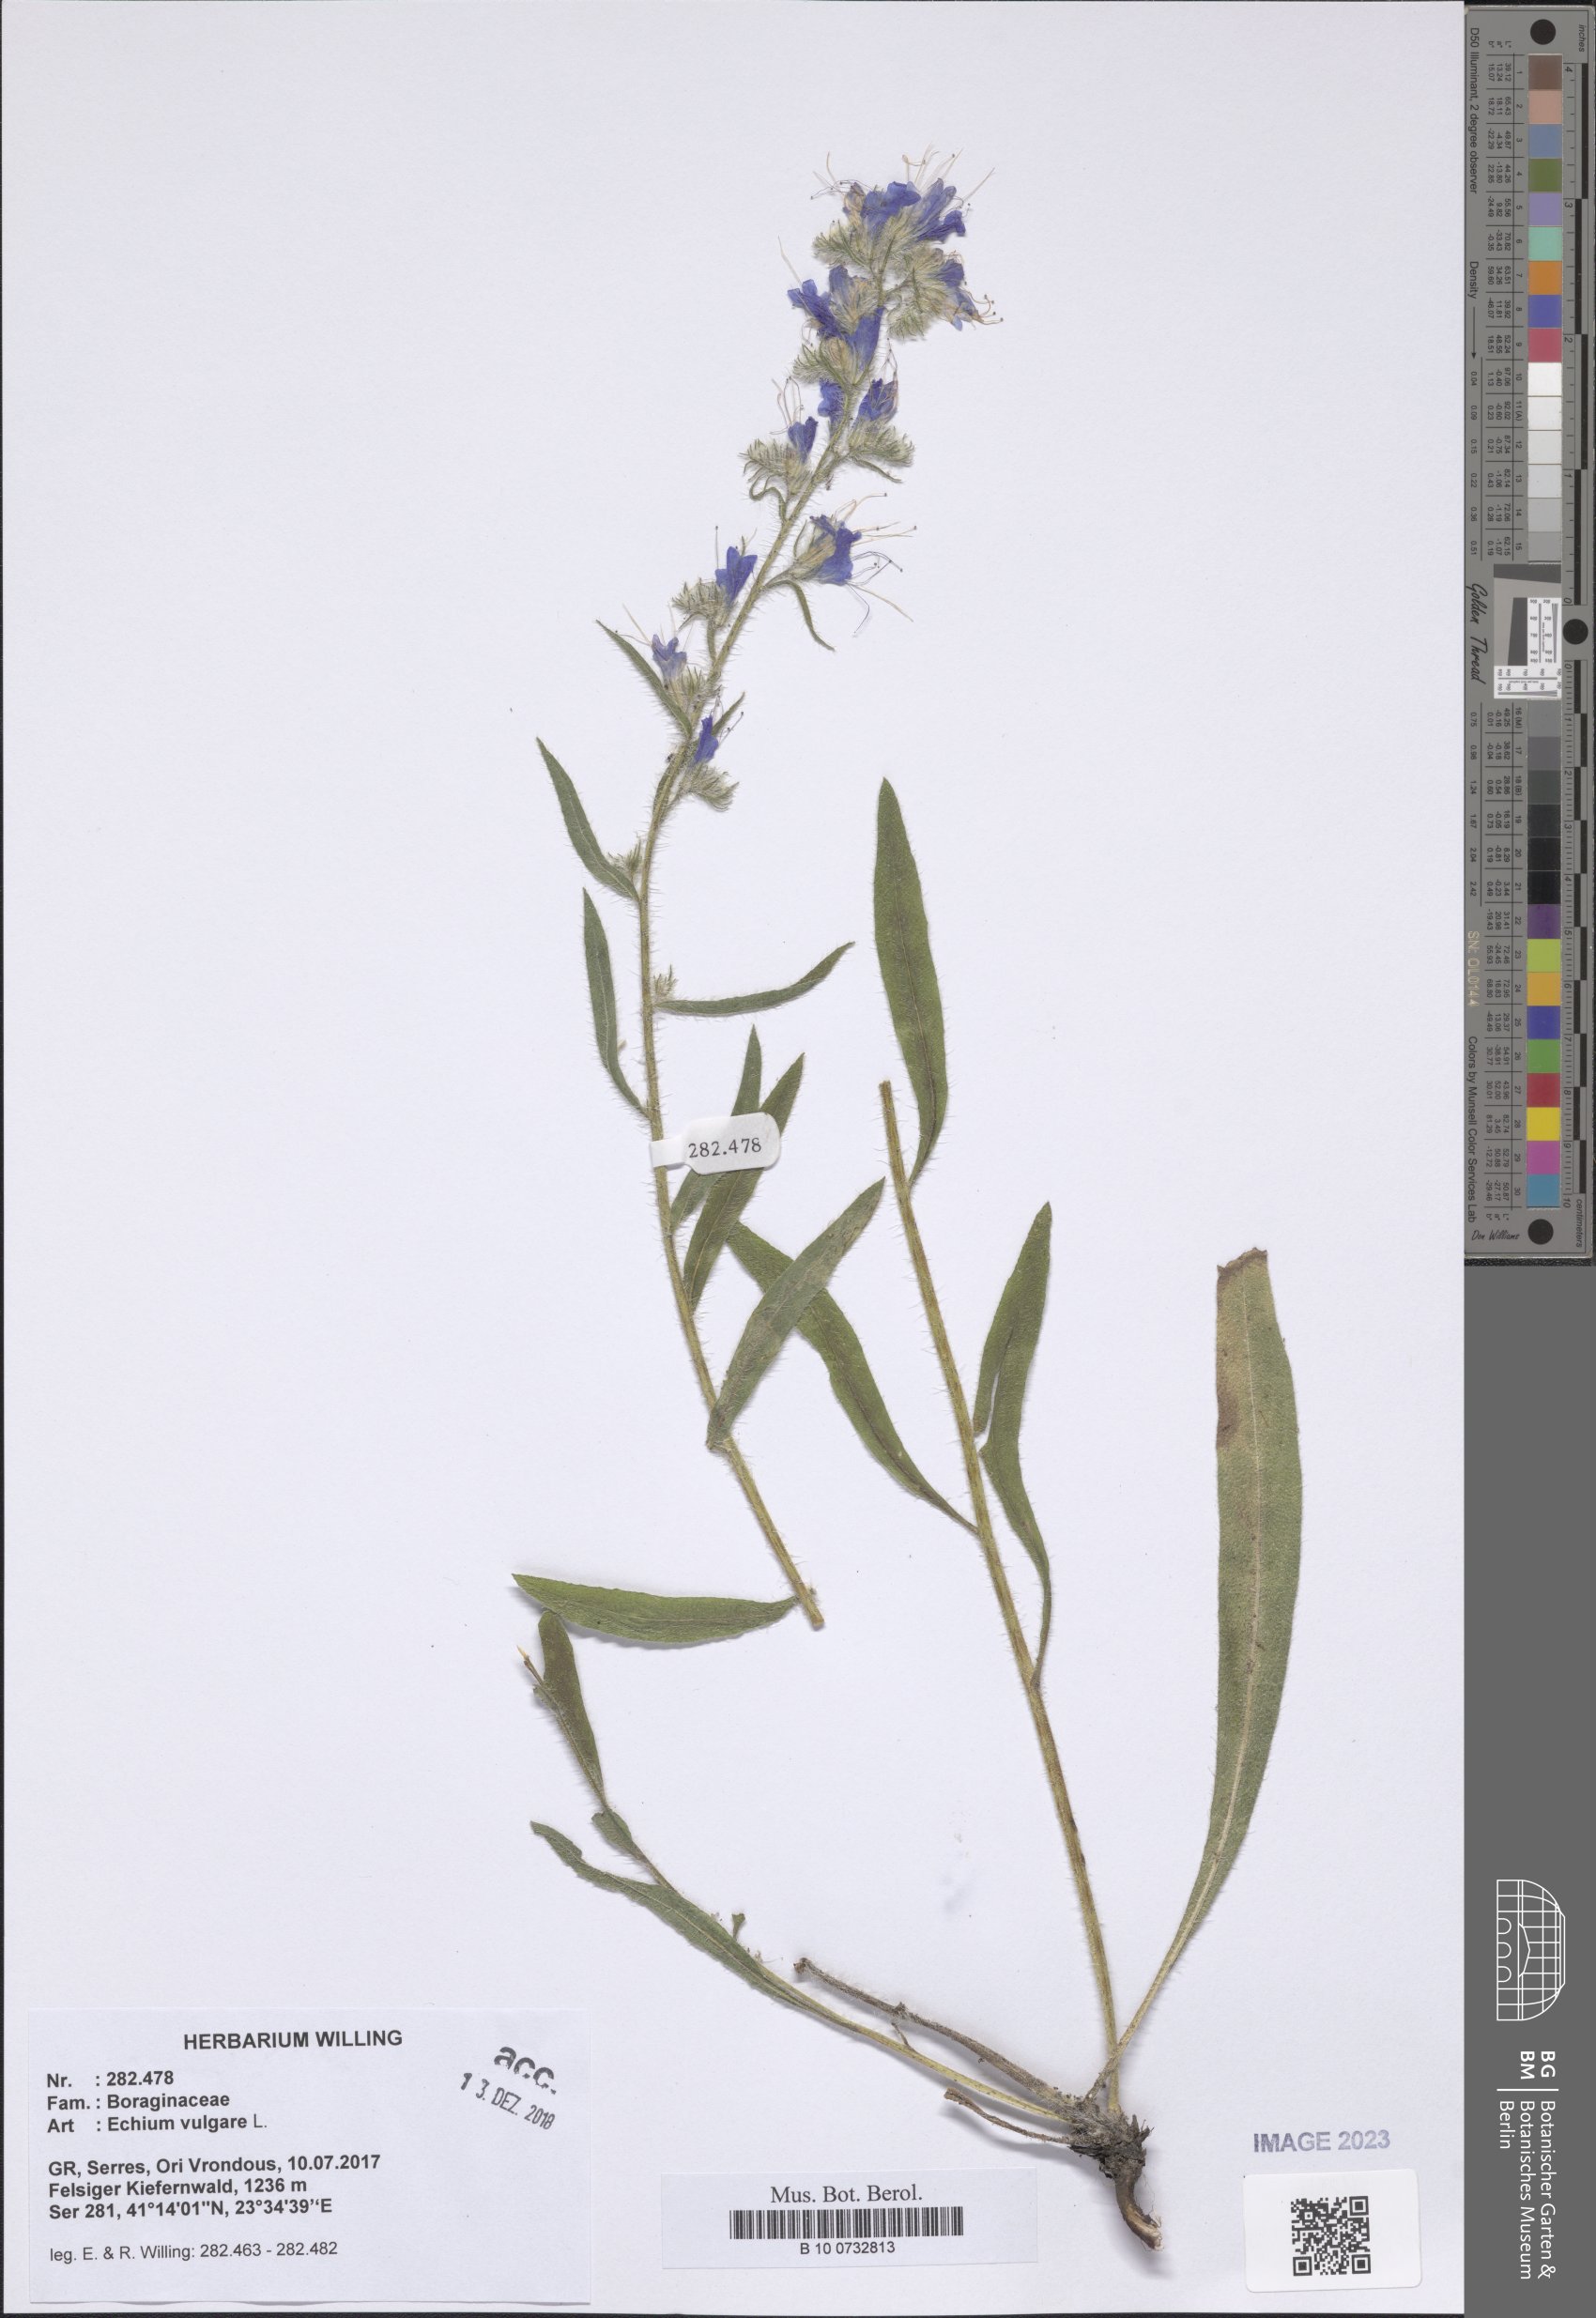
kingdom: Plantae
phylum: Tracheophyta
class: Magnoliopsida
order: Boraginales
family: Boraginaceae
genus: Echium
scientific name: Echium vulgare
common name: Common viper's bugloss
